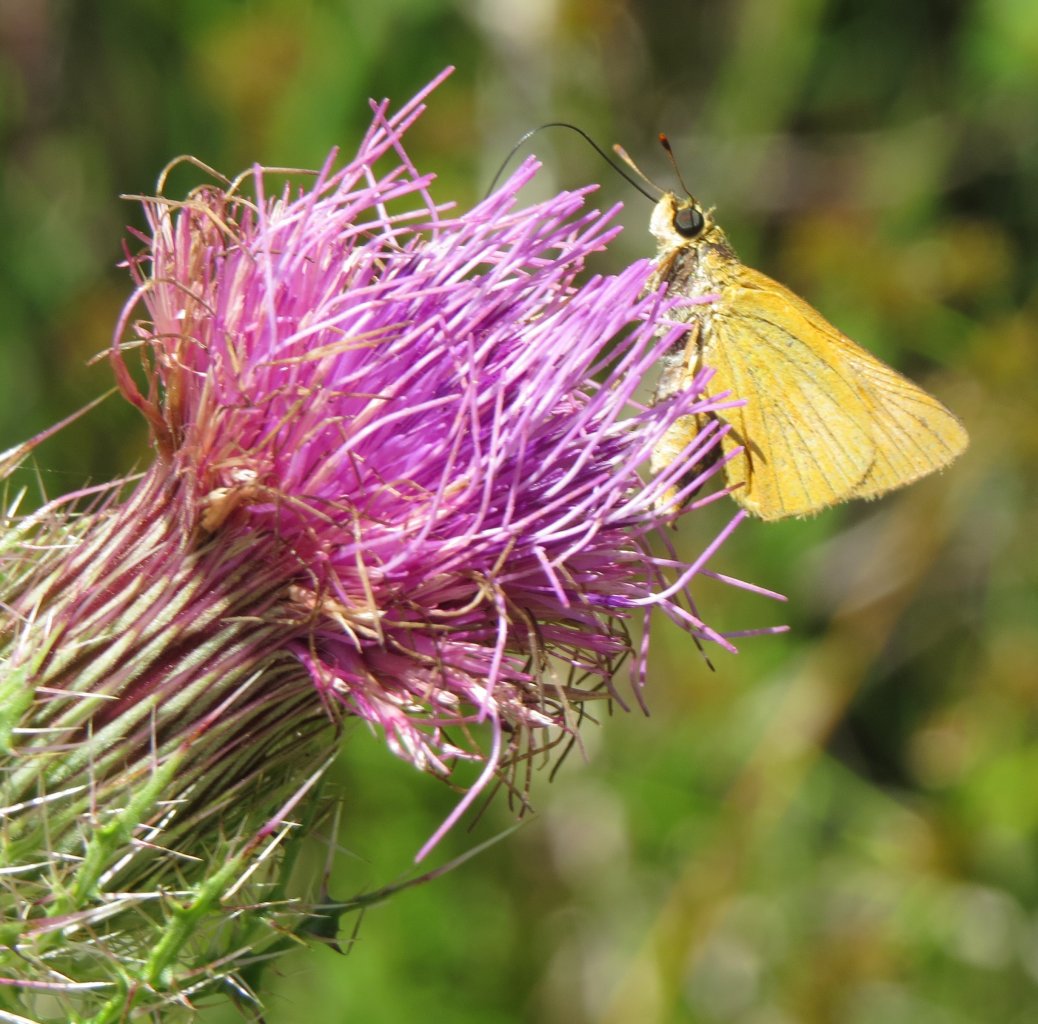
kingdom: Animalia
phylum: Arthropoda
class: Insecta
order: Lepidoptera
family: Hesperiidae
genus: Atrytone
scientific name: Atrytone delaware
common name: Delaware Skipper
